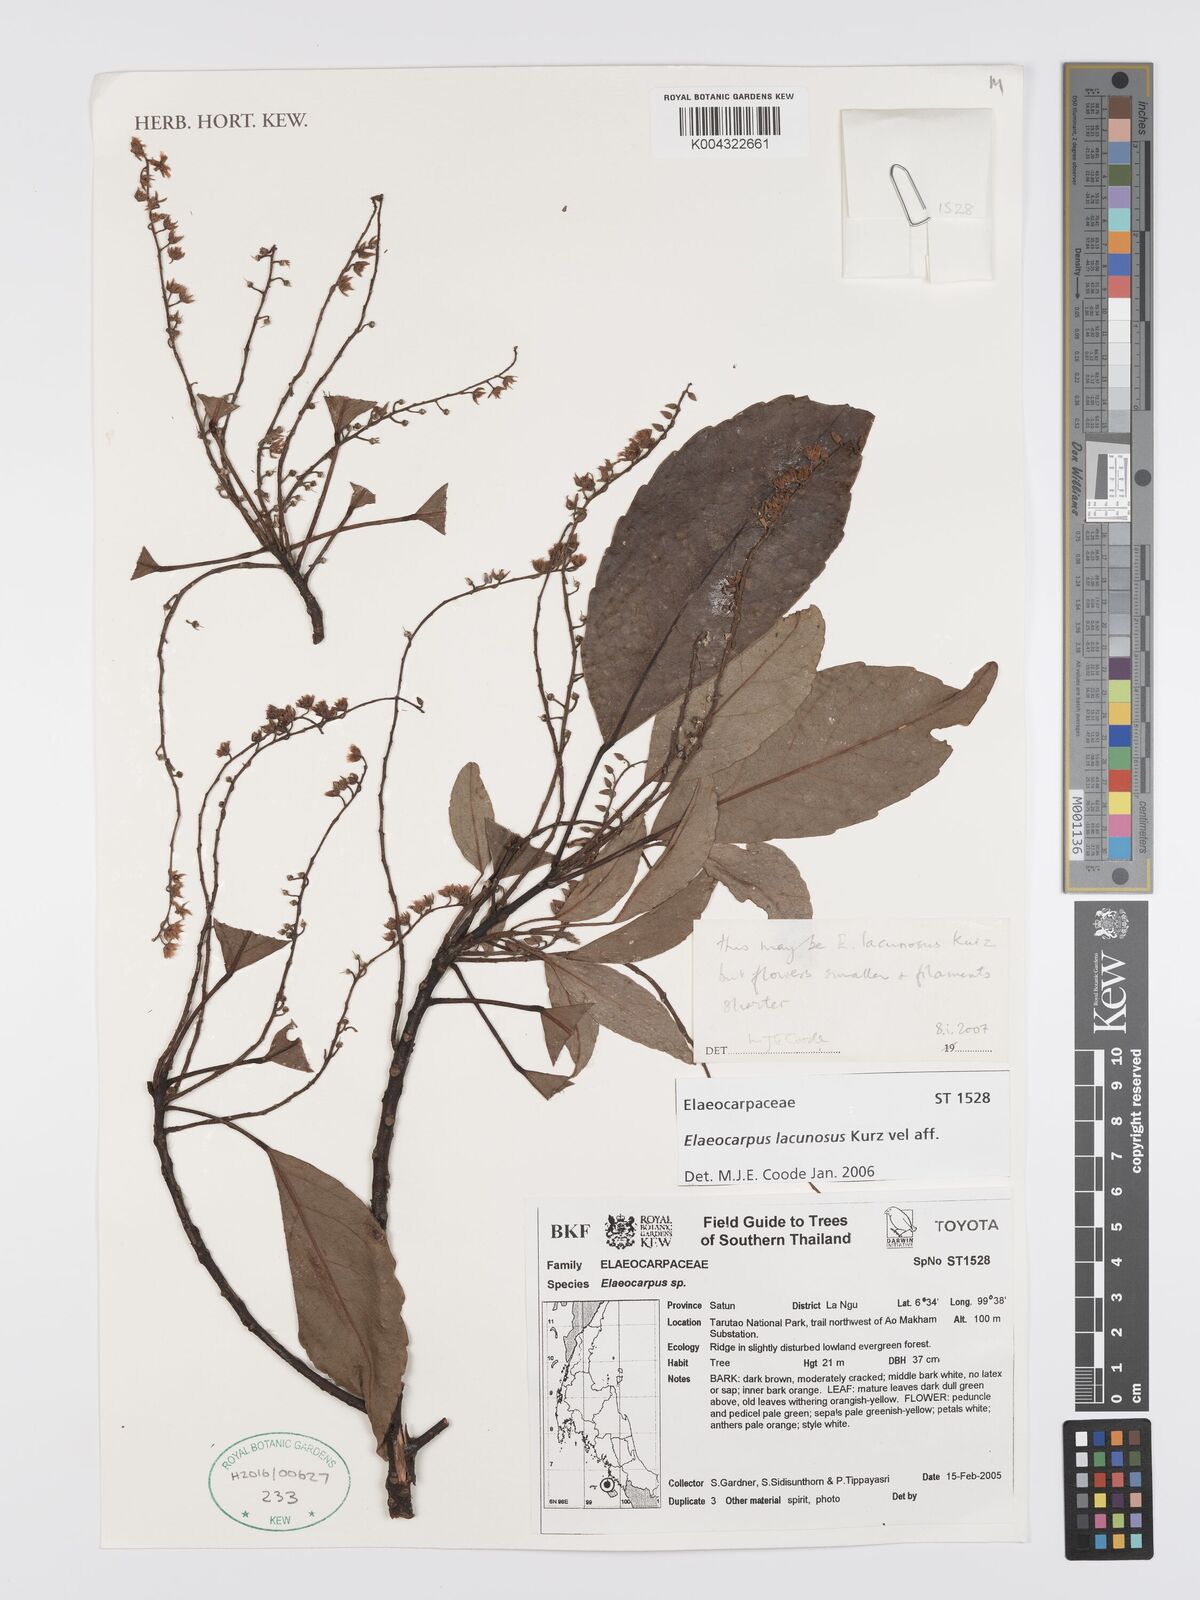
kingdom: Plantae
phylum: Tracheophyta
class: Magnoliopsida
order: Oxalidales
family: Elaeocarpaceae
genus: Elaeocarpus
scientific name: Elaeocarpus lanceifolius
